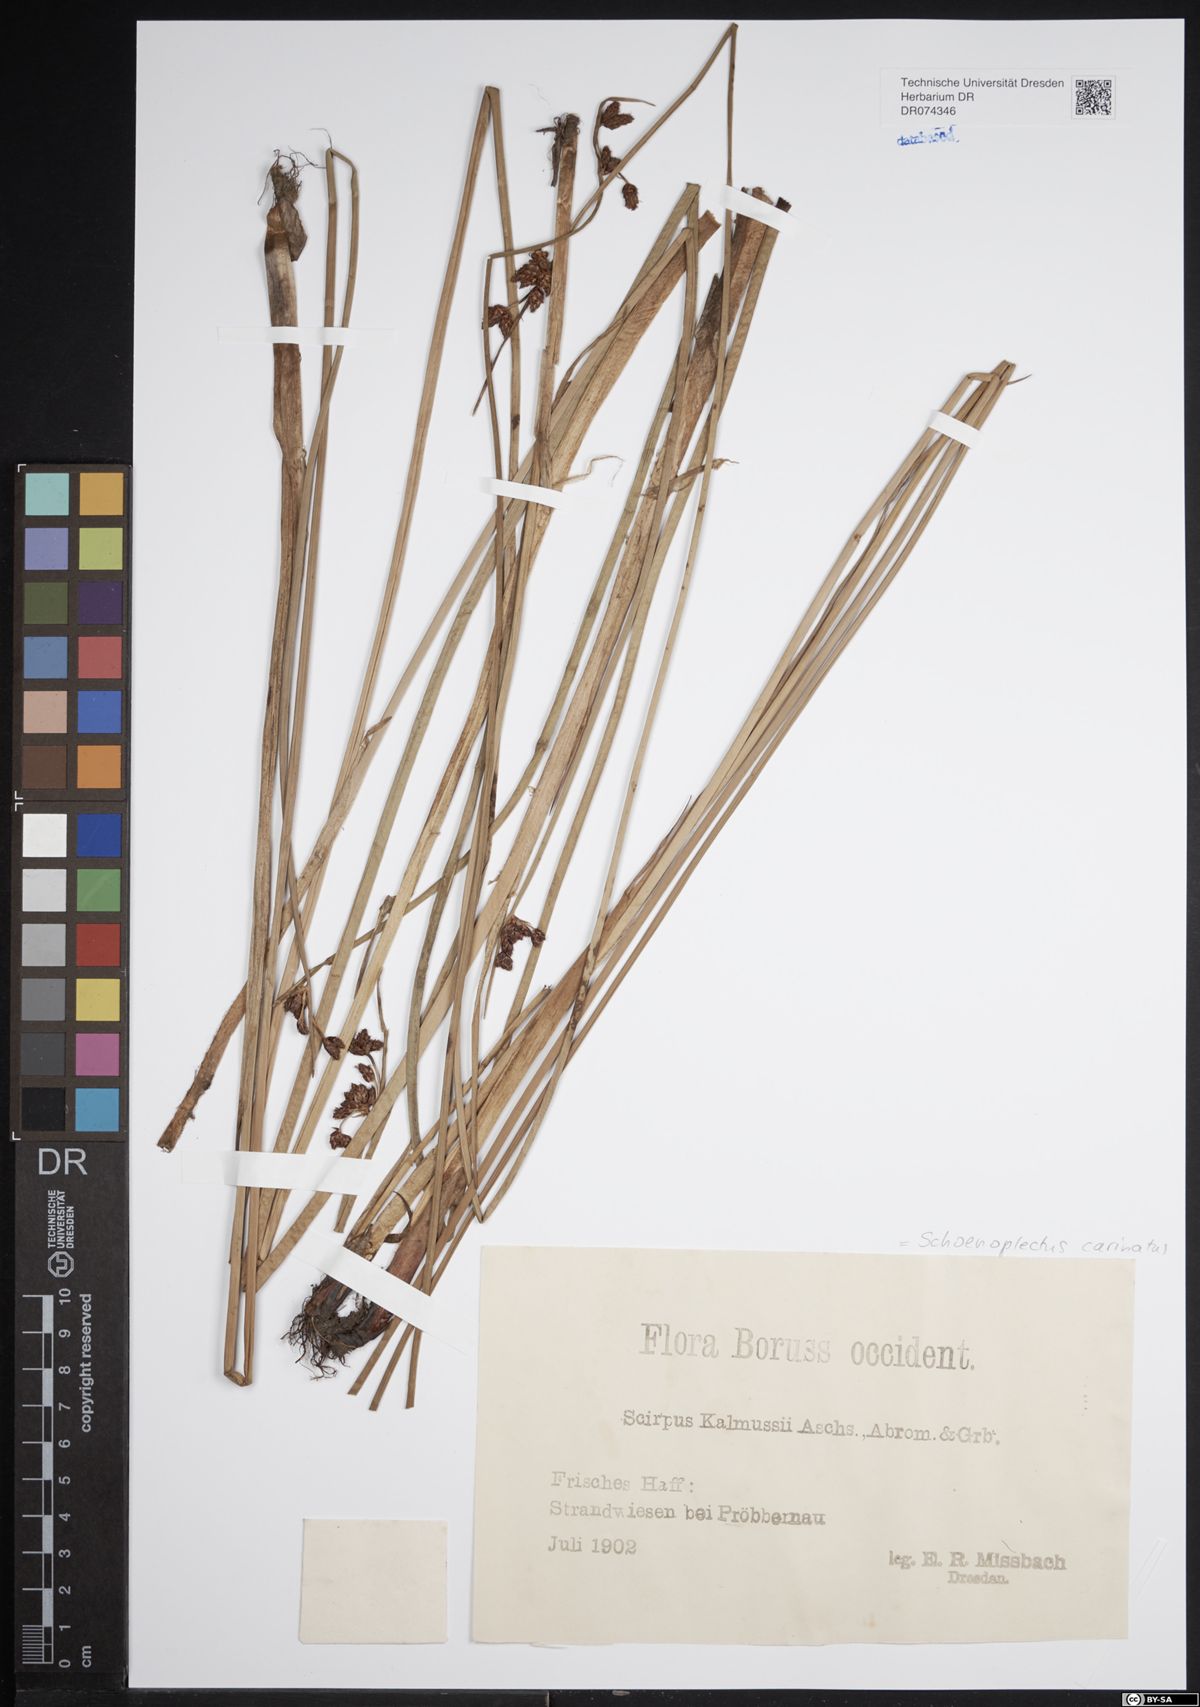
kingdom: Plantae
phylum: Tracheophyta
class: Liliopsida
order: Poales
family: Cyperaceae
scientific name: Cyperaceae
